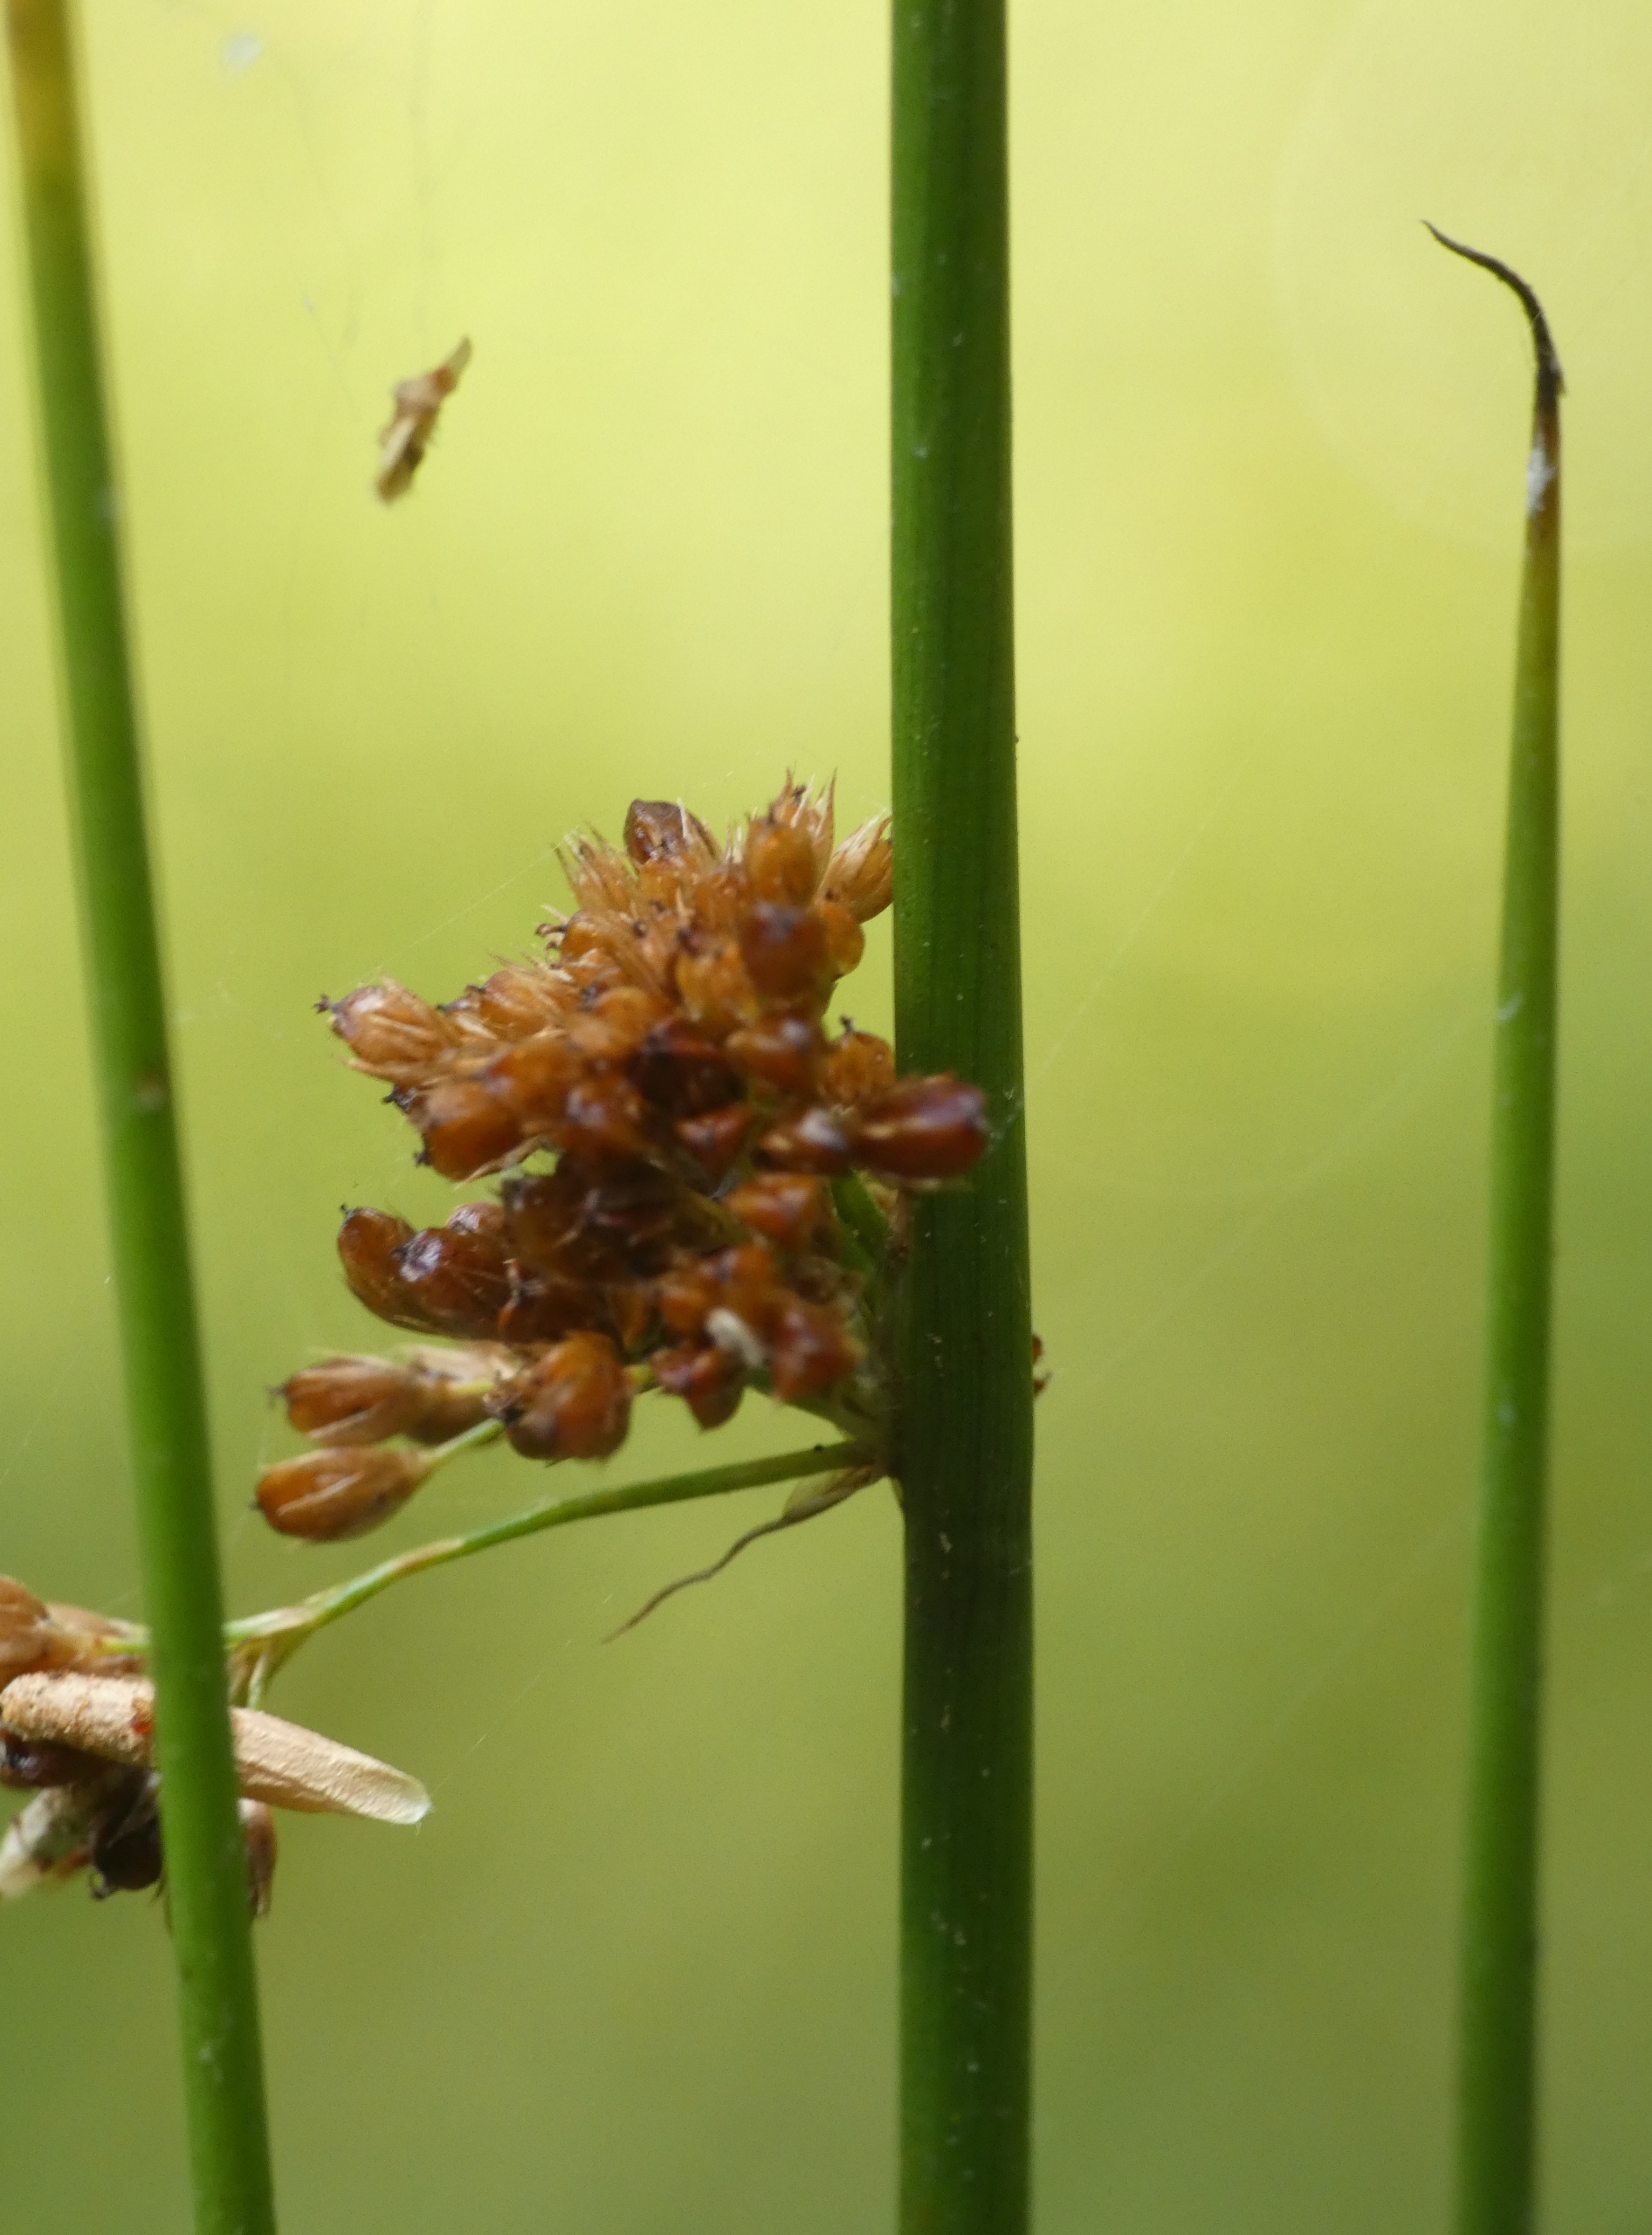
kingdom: Plantae
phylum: Tracheophyta
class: Liliopsida
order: Poales
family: Juncaceae
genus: Juncus
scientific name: Juncus effusus
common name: Lyse-siv
